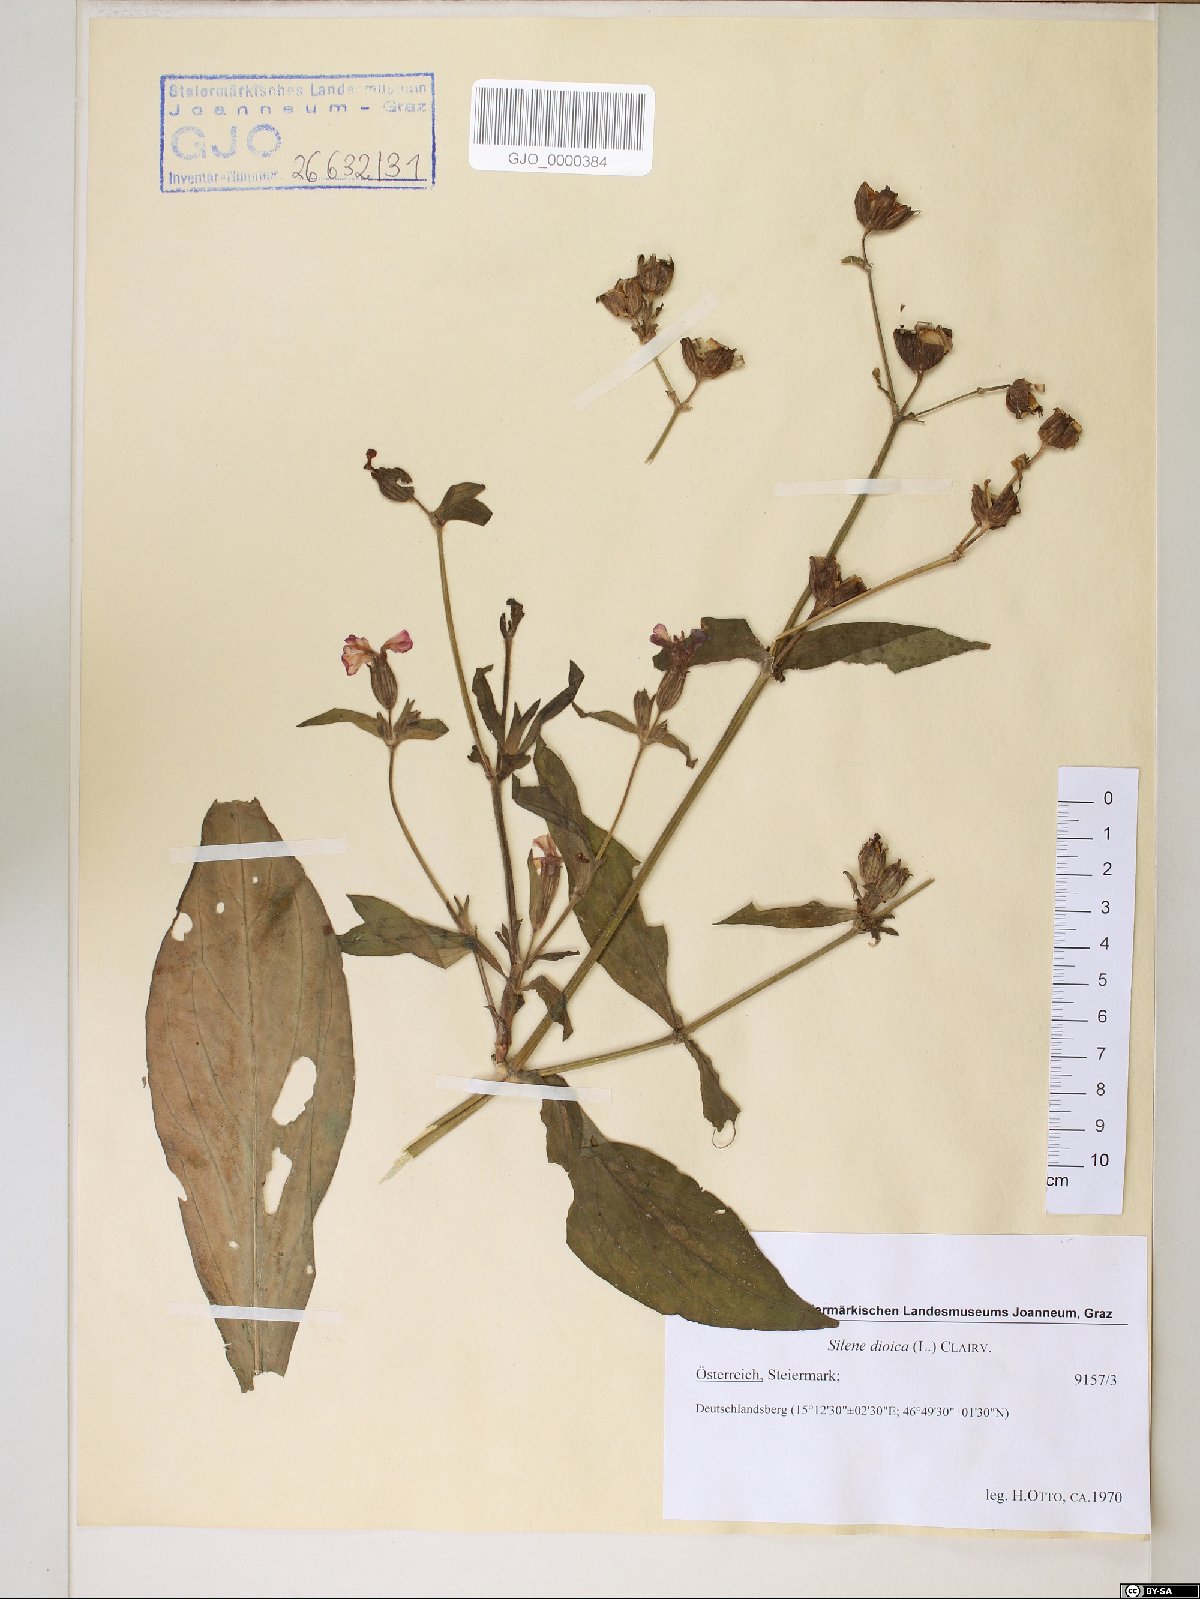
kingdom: Plantae
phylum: Tracheophyta
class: Magnoliopsida
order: Caryophyllales
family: Caryophyllaceae
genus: Silene
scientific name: Silene dioica
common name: Red campion
